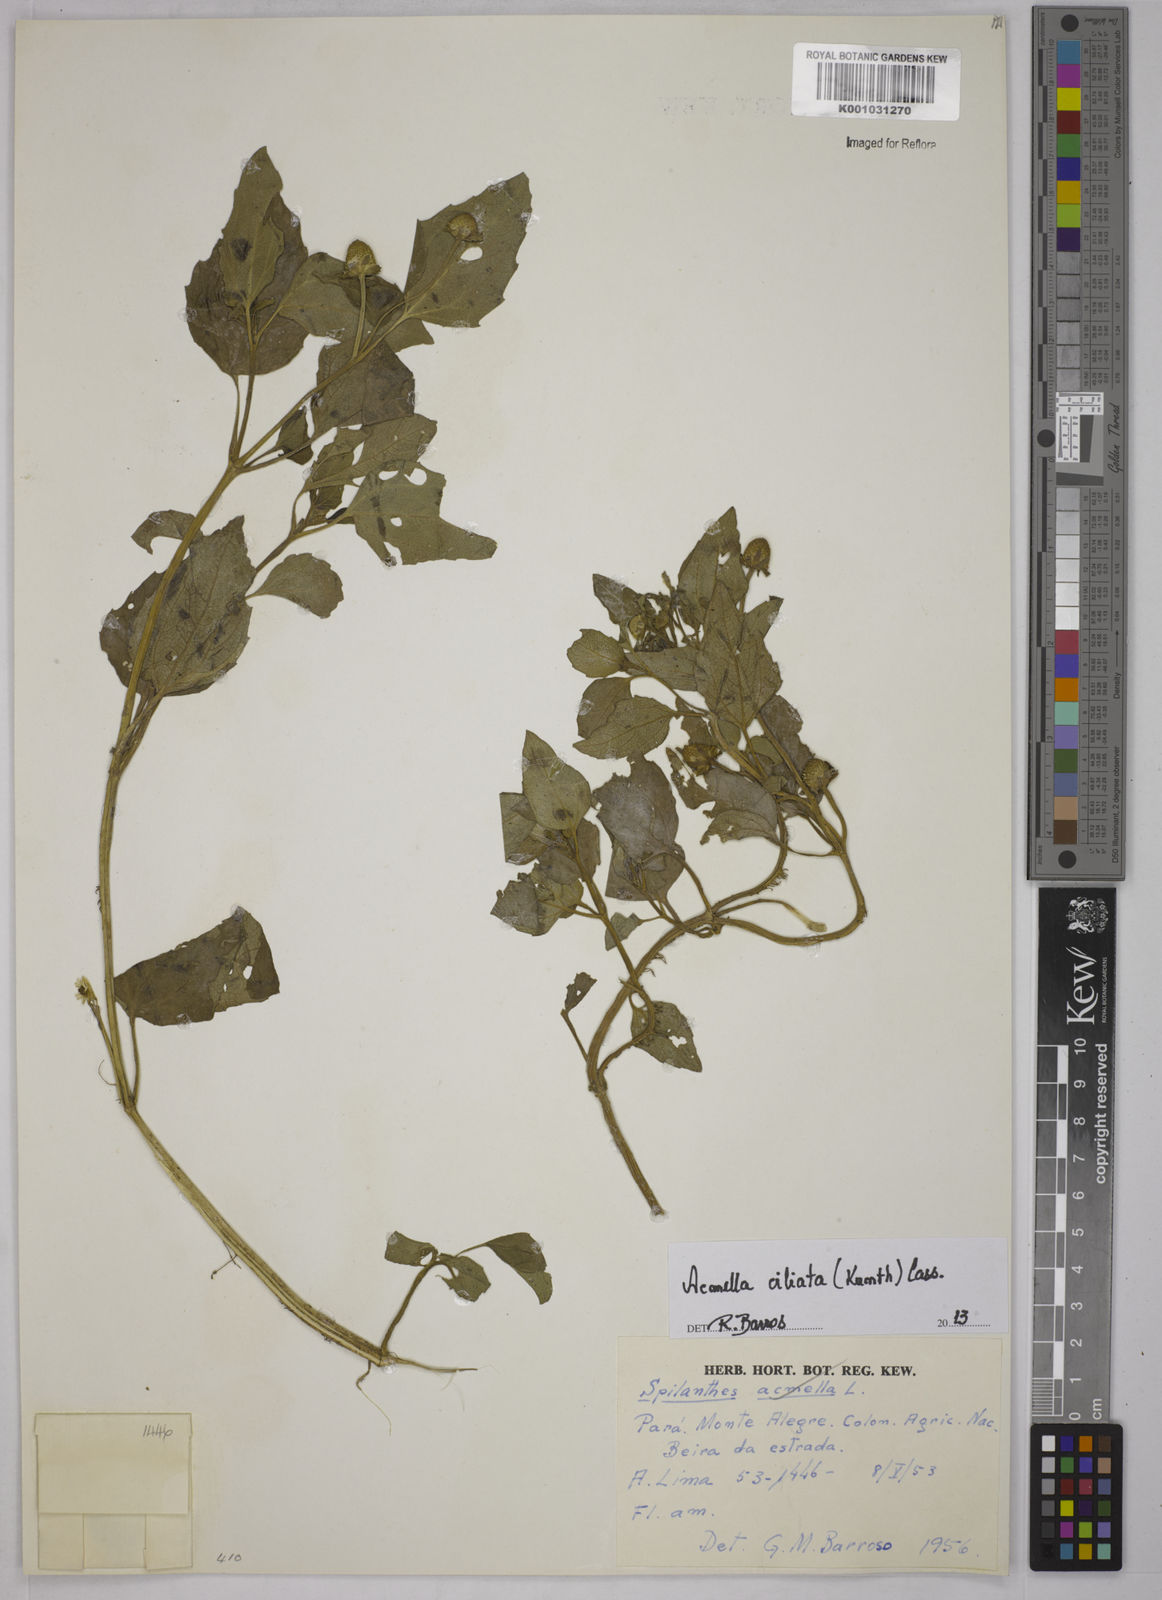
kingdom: Plantae
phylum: Tracheophyta
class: Magnoliopsida
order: Asterales
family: Asteraceae
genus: Acmella
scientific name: Acmella ciliata
